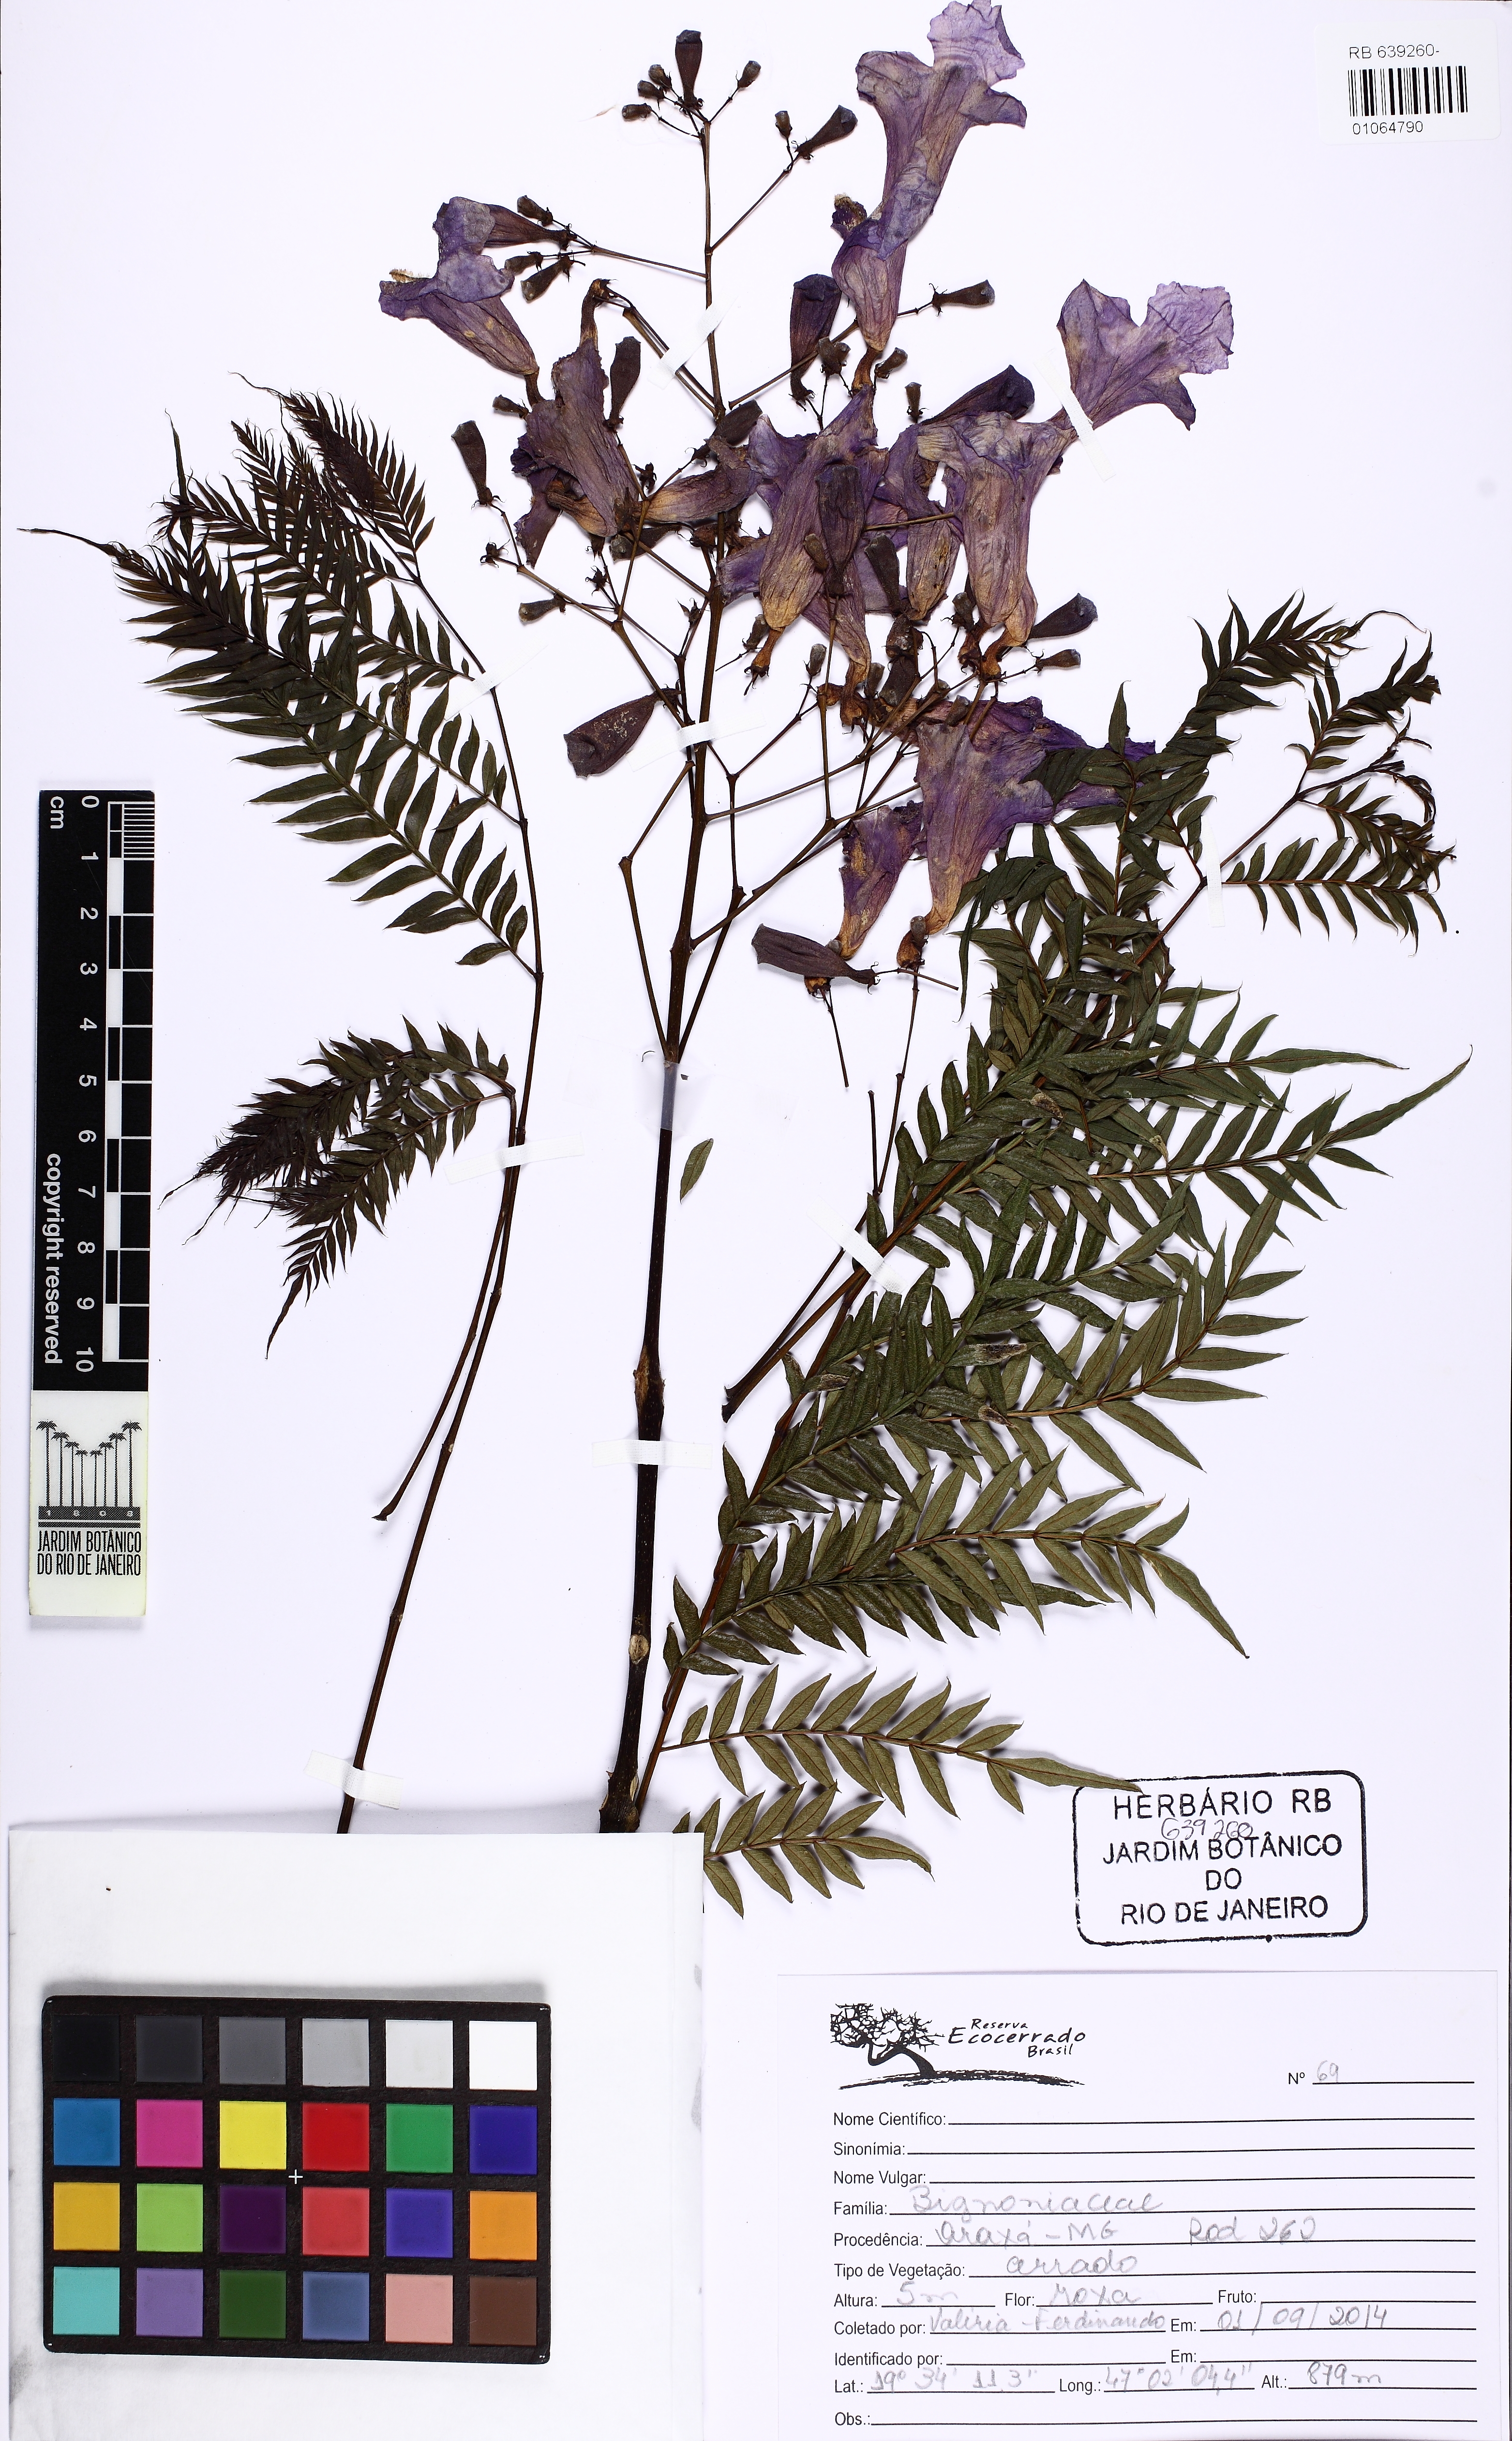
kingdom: Plantae
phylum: Tracheophyta
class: Magnoliopsida
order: Lamiales
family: Bignoniaceae
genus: Jacaranda
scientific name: Jacaranda cuspidifolia
